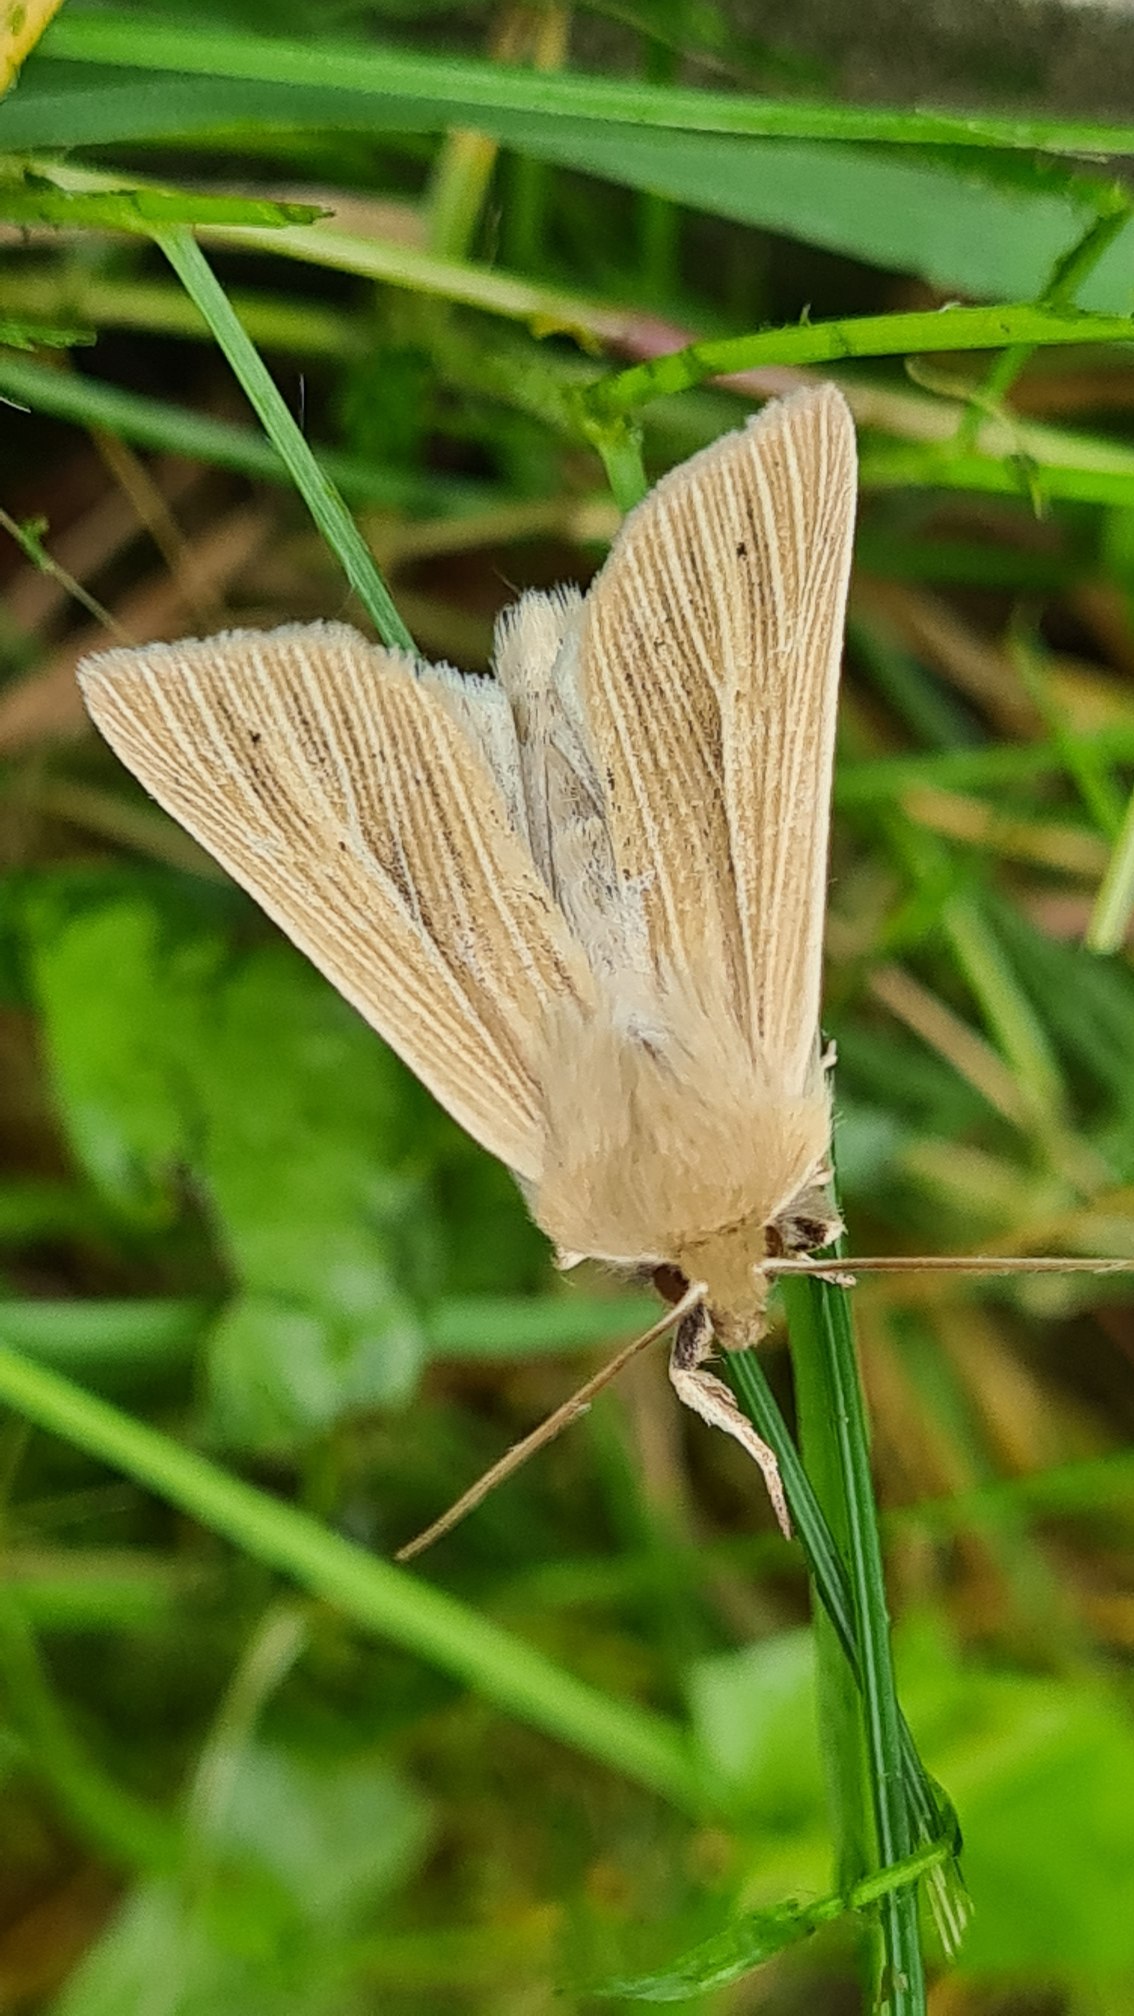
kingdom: Animalia
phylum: Arthropoda
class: Insecta
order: Lepidoptera
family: Noctuidae
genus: Mythimna
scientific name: Mythimna pallens
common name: Halmugle
